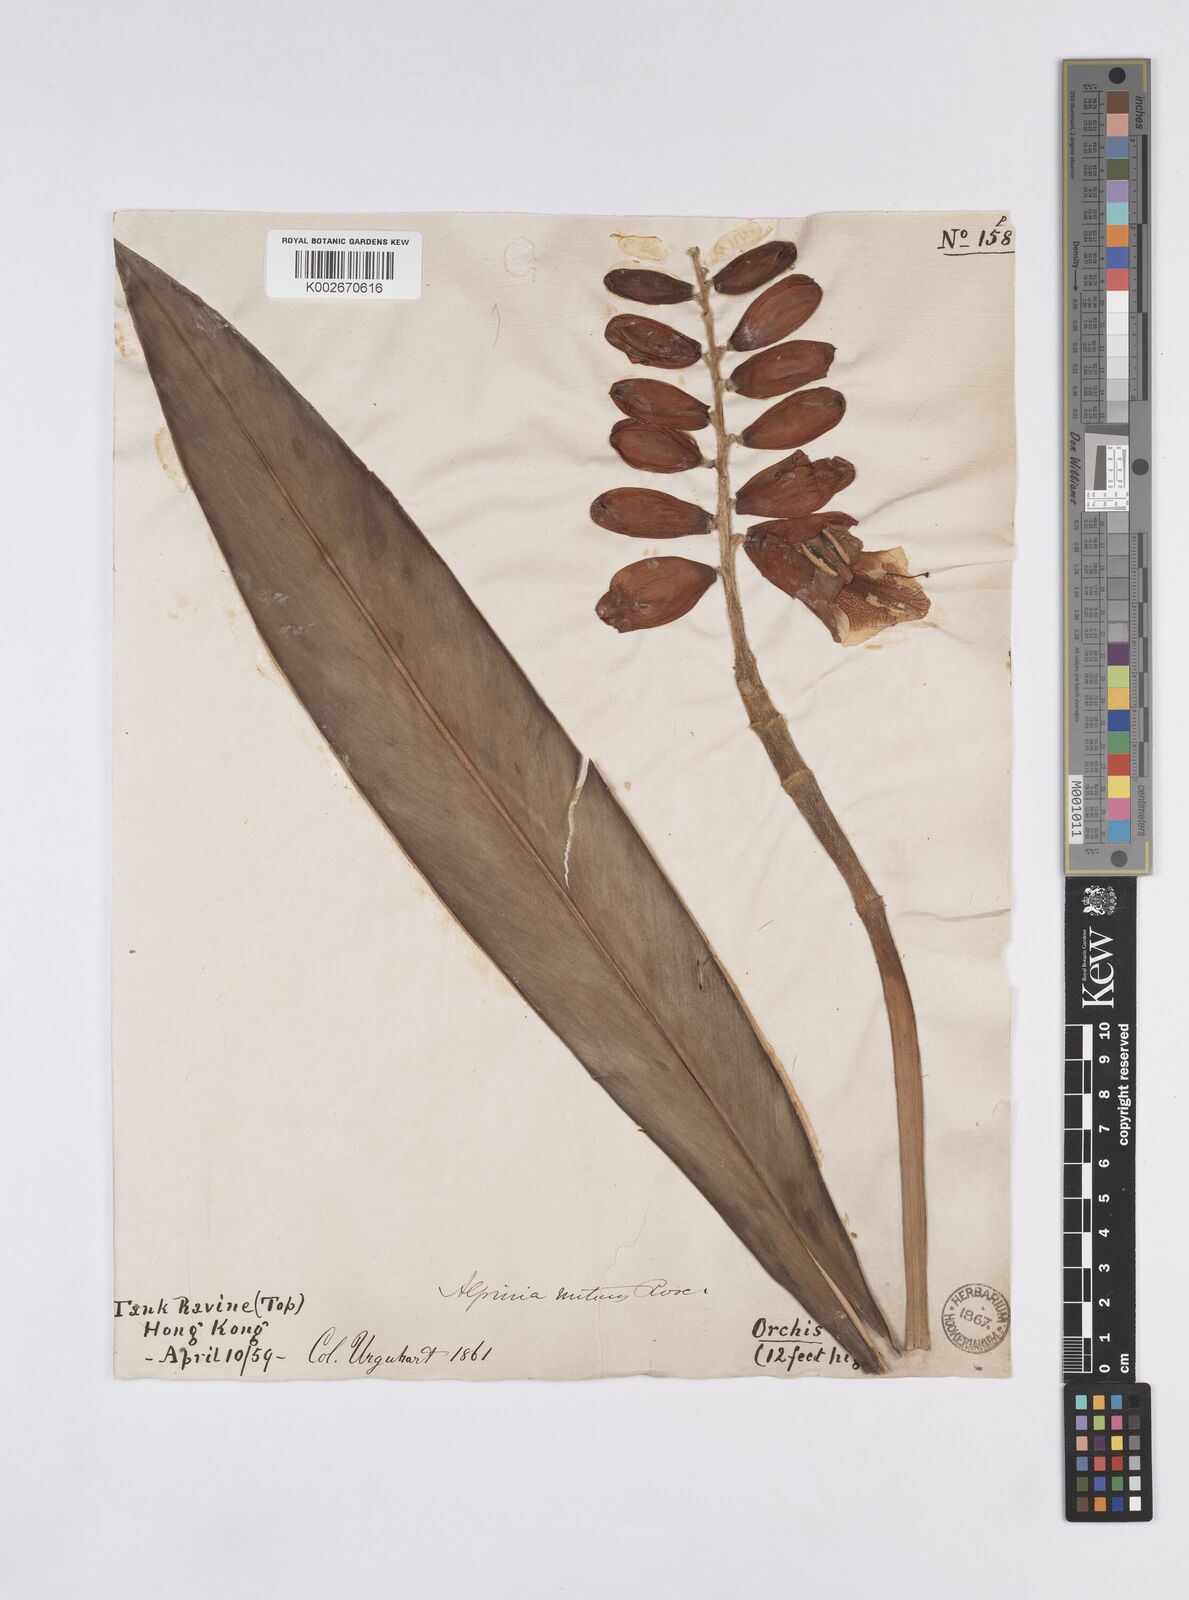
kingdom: Plantae
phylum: Tracheophyta
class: Liliopsida
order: Zingiberales
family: Zingiberaceae
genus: Alpinia
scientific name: Alpinia zerumbet
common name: Shellplant
